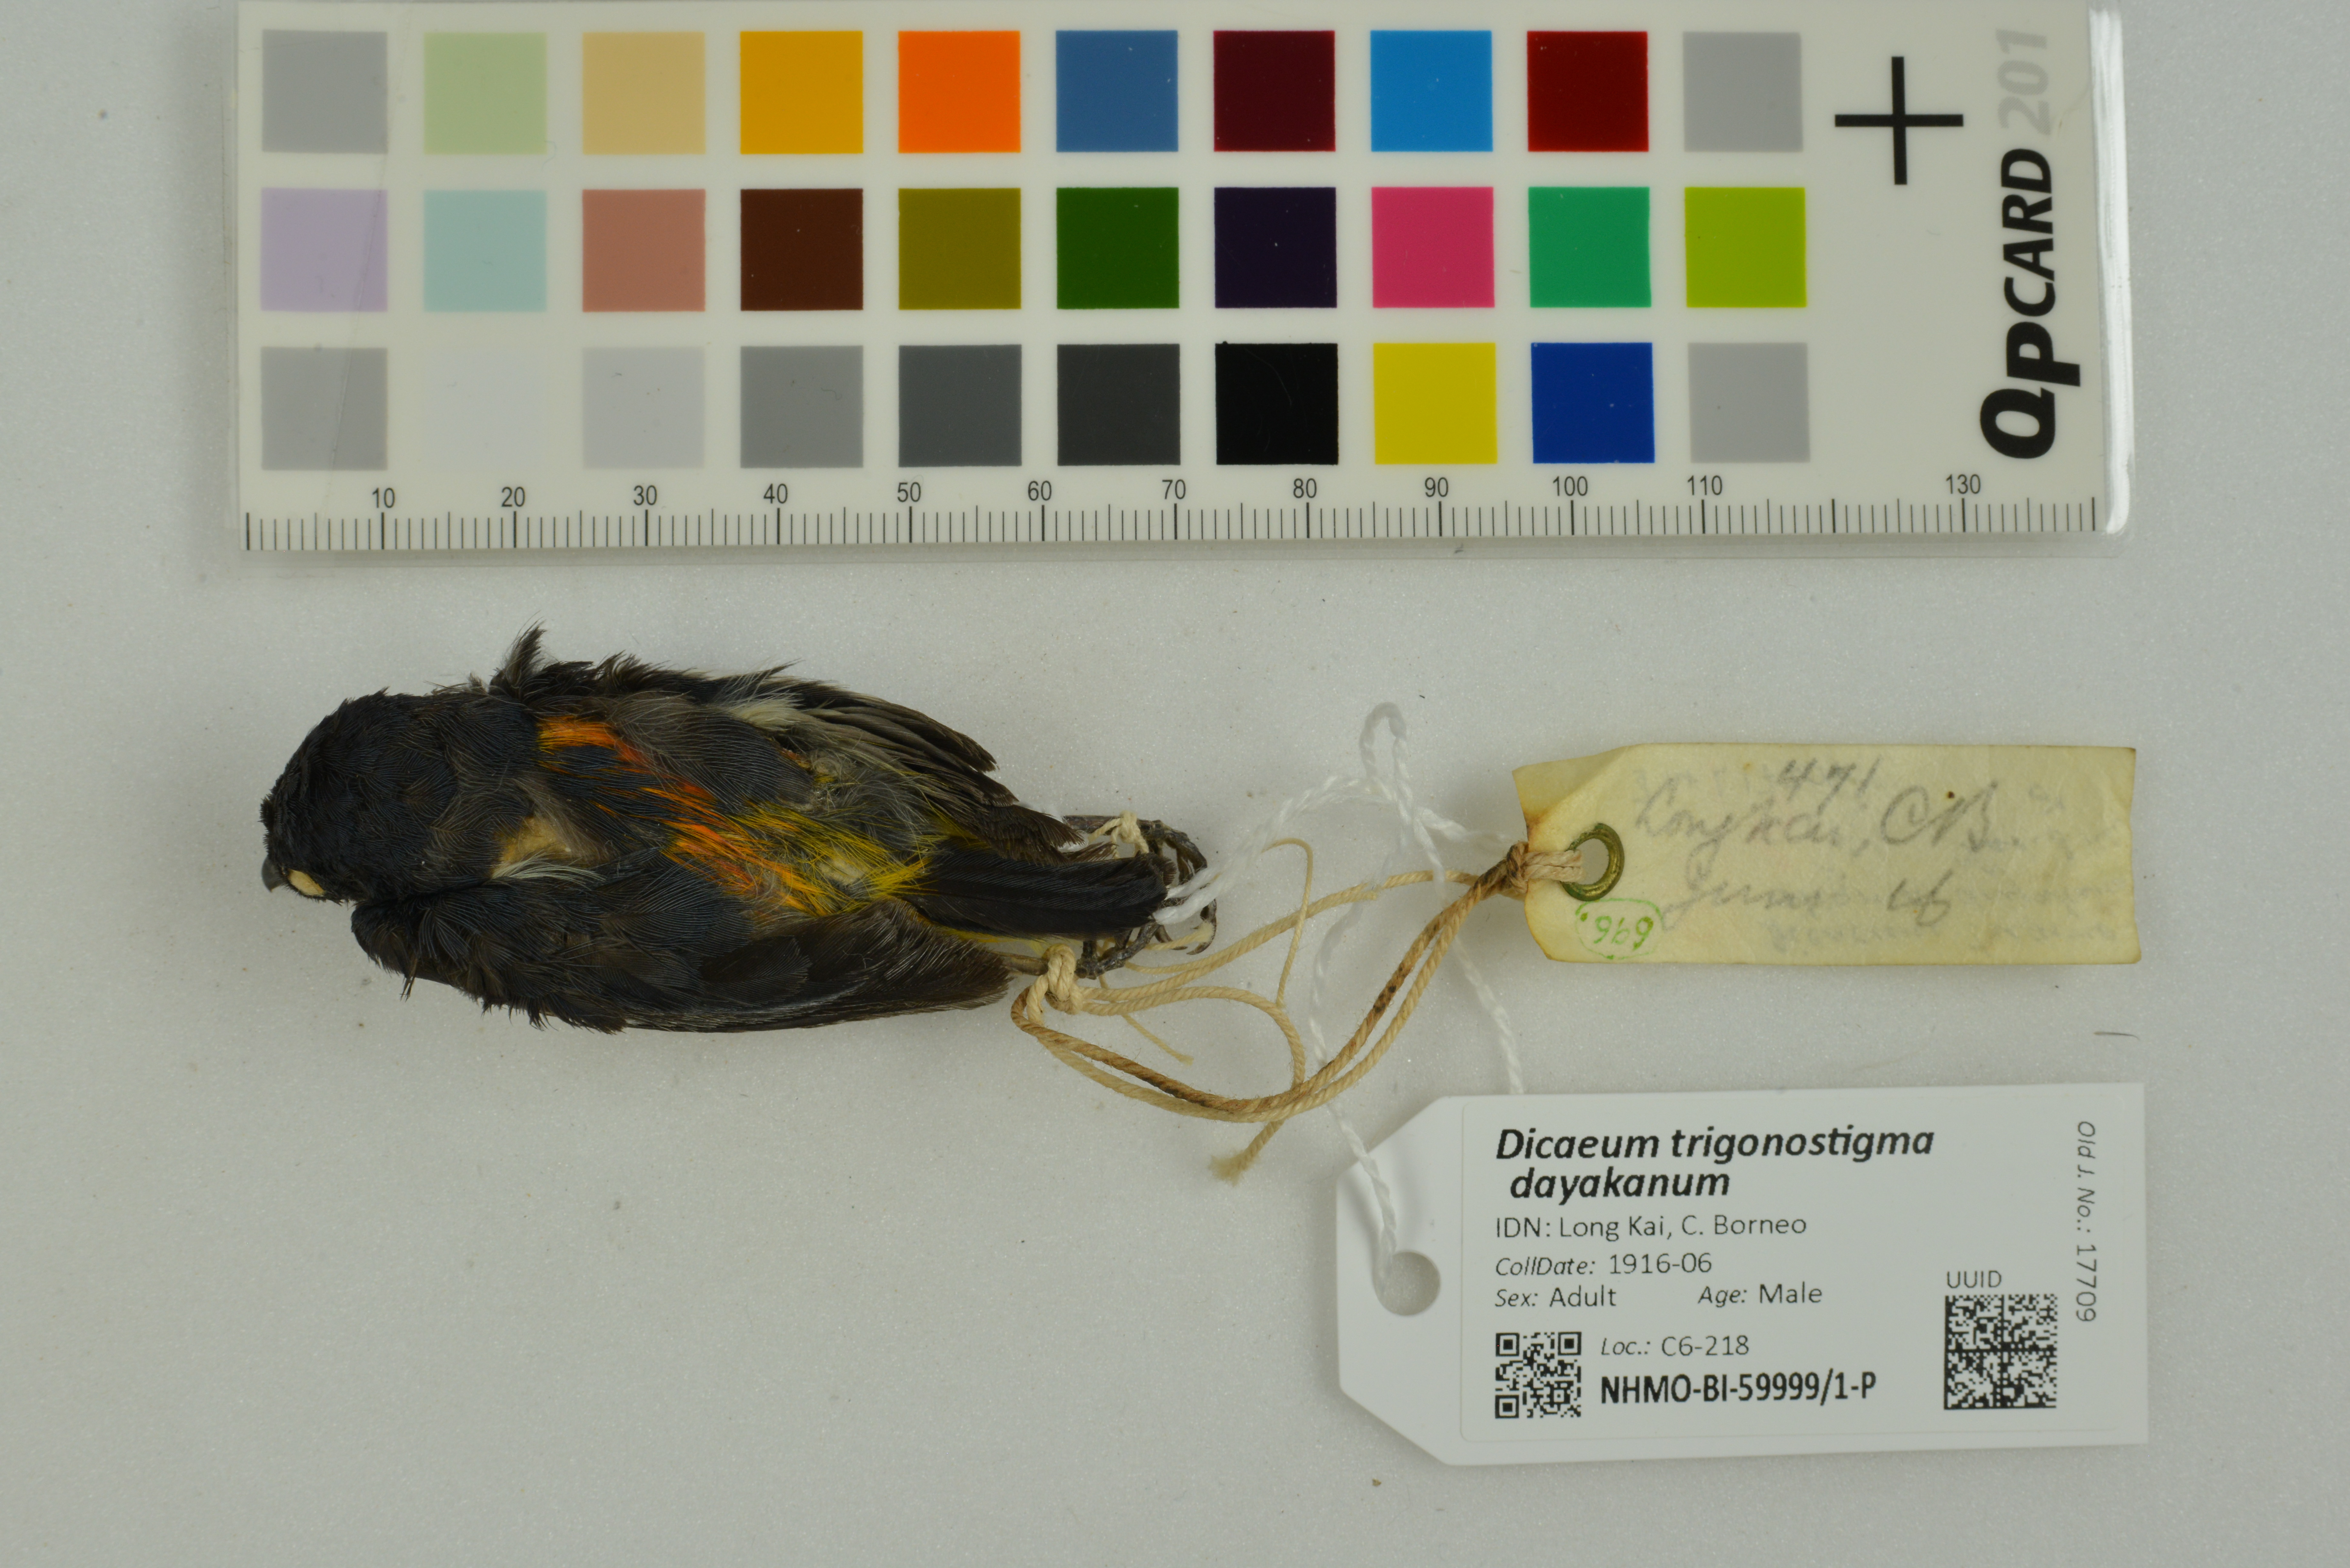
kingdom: Animalia
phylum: Chordata
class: Aves
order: Passeriformes
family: Dicaeidae
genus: Dicaeum
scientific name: Dicaeum trigonostigma
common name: Orange-bellied flowerpecker
